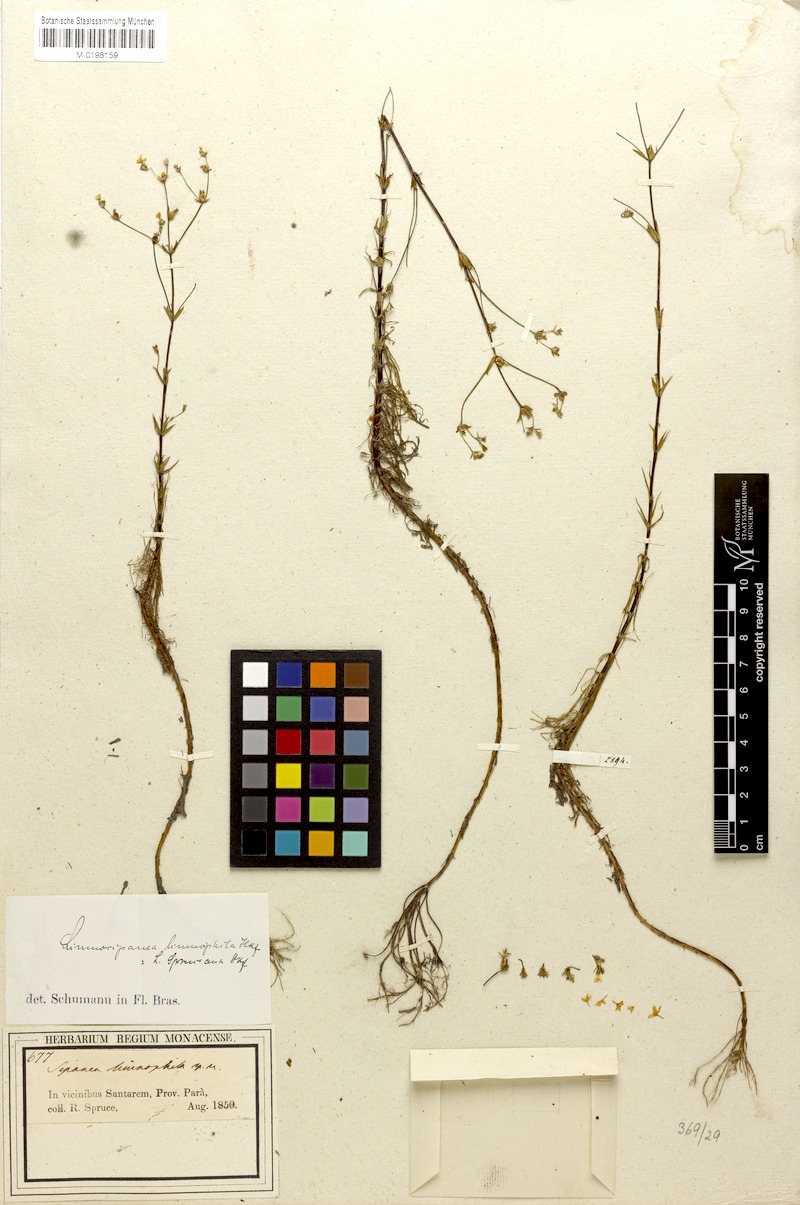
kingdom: Plantae
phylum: Tracheophyta
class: Magnoliopsida
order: Gentianales
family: Rubiaceae
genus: Limnosipanea
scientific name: Limnosipanea spruceana
